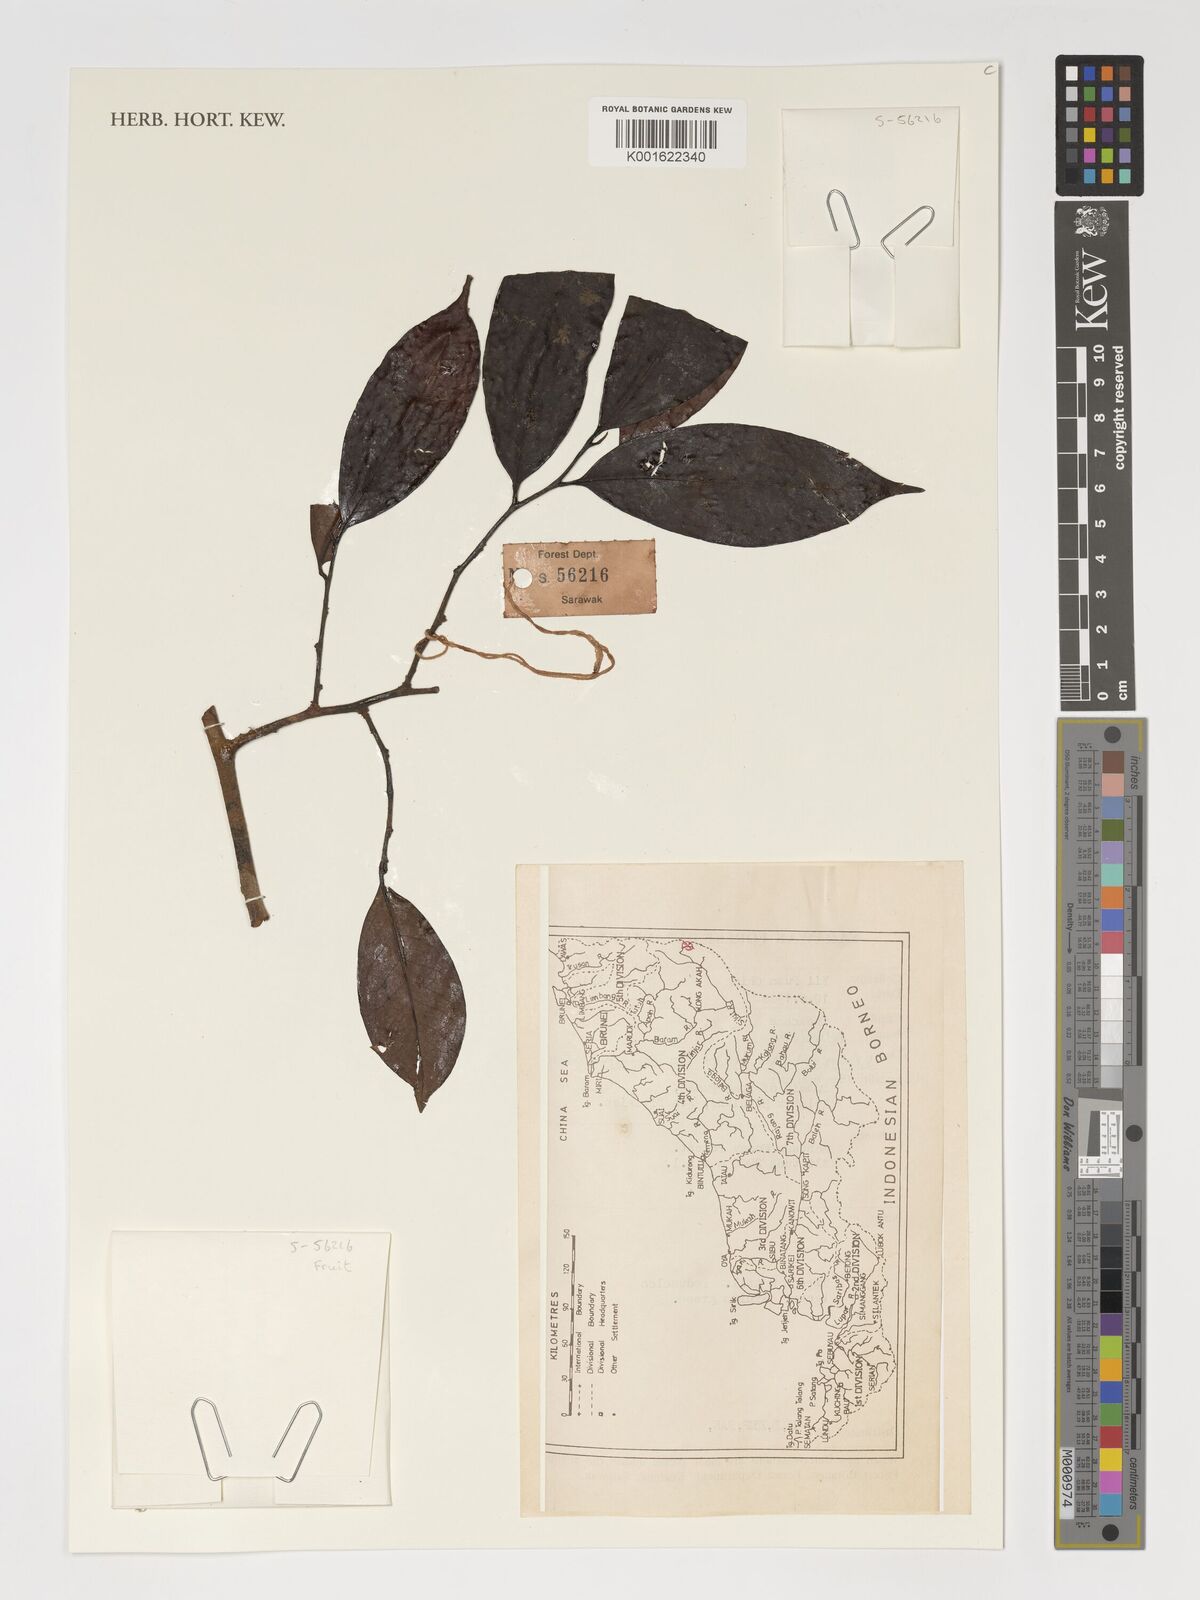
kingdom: Plantae
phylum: Tracheophyta
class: Magnoliopsida
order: Ericales
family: Pentaphylacaceae
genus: Adinandra
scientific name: Adinandra
